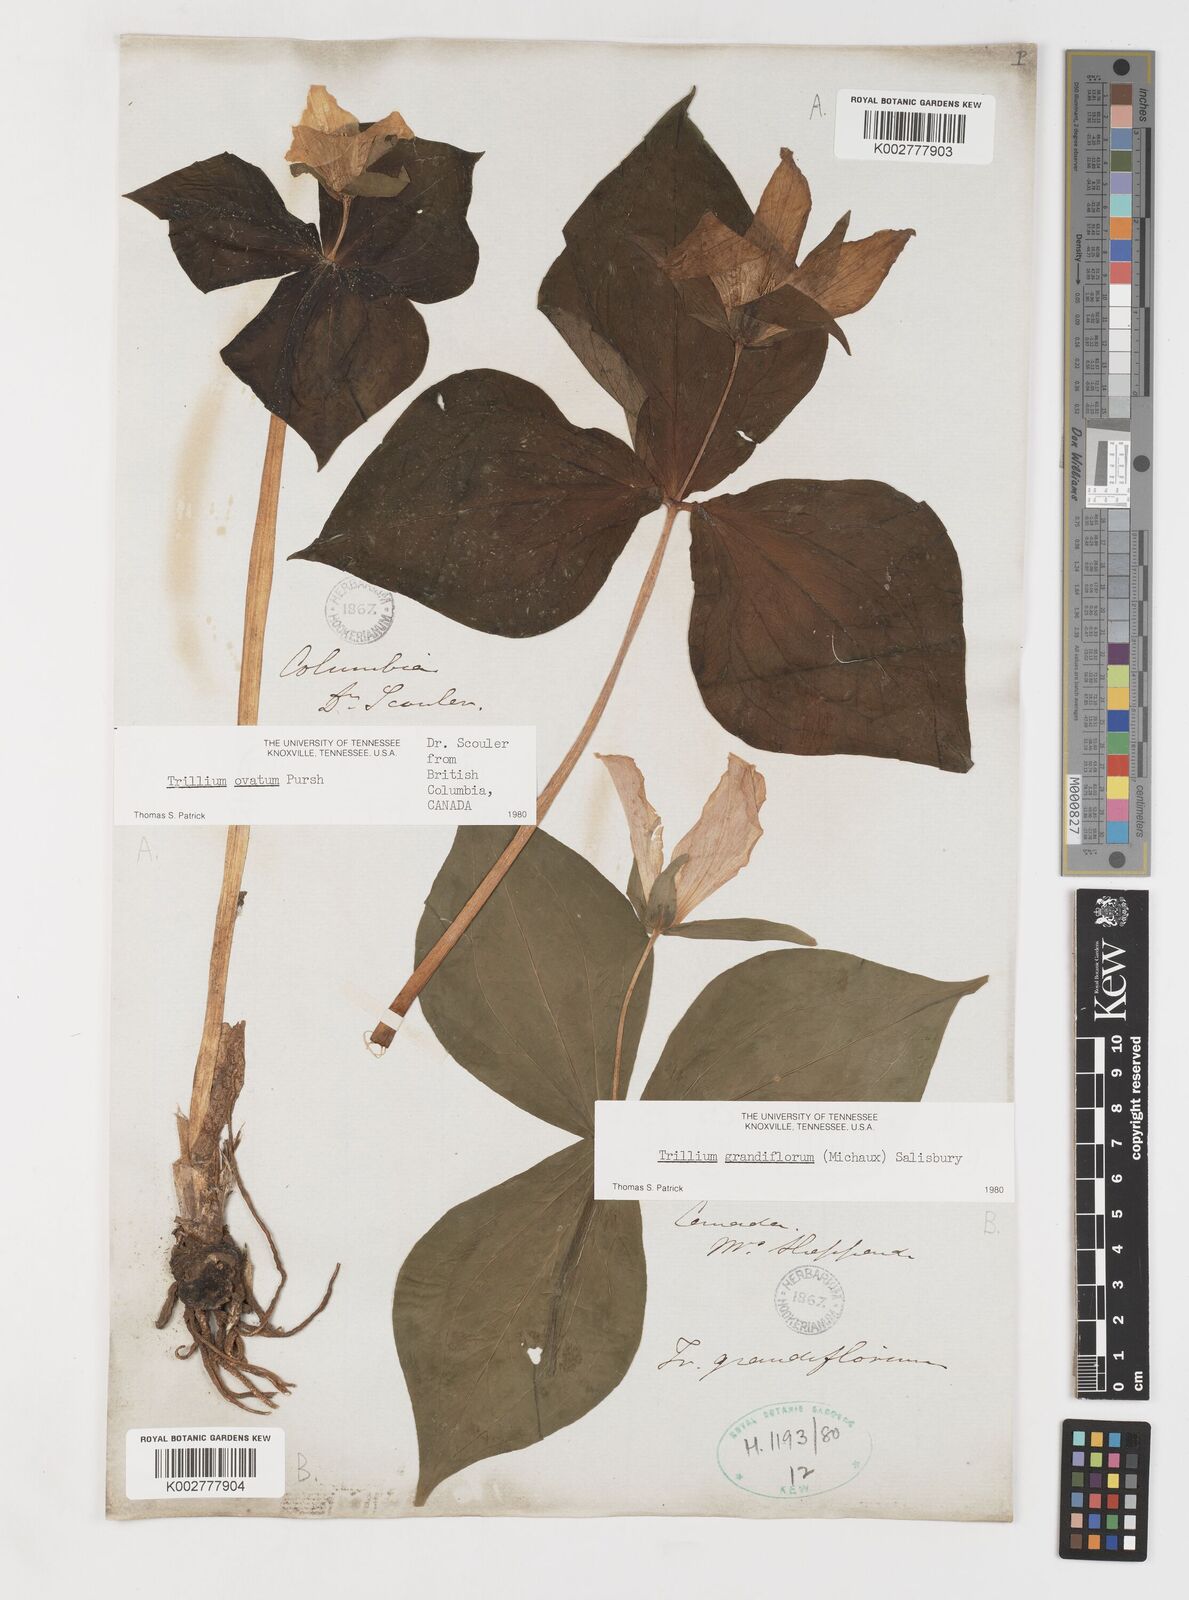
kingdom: Plantae
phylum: Tracheophyta
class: Liliopsida
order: Liliales
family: Melanthiaceae
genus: Trillium
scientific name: Trillium grandiflorum
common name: Great white trillium
